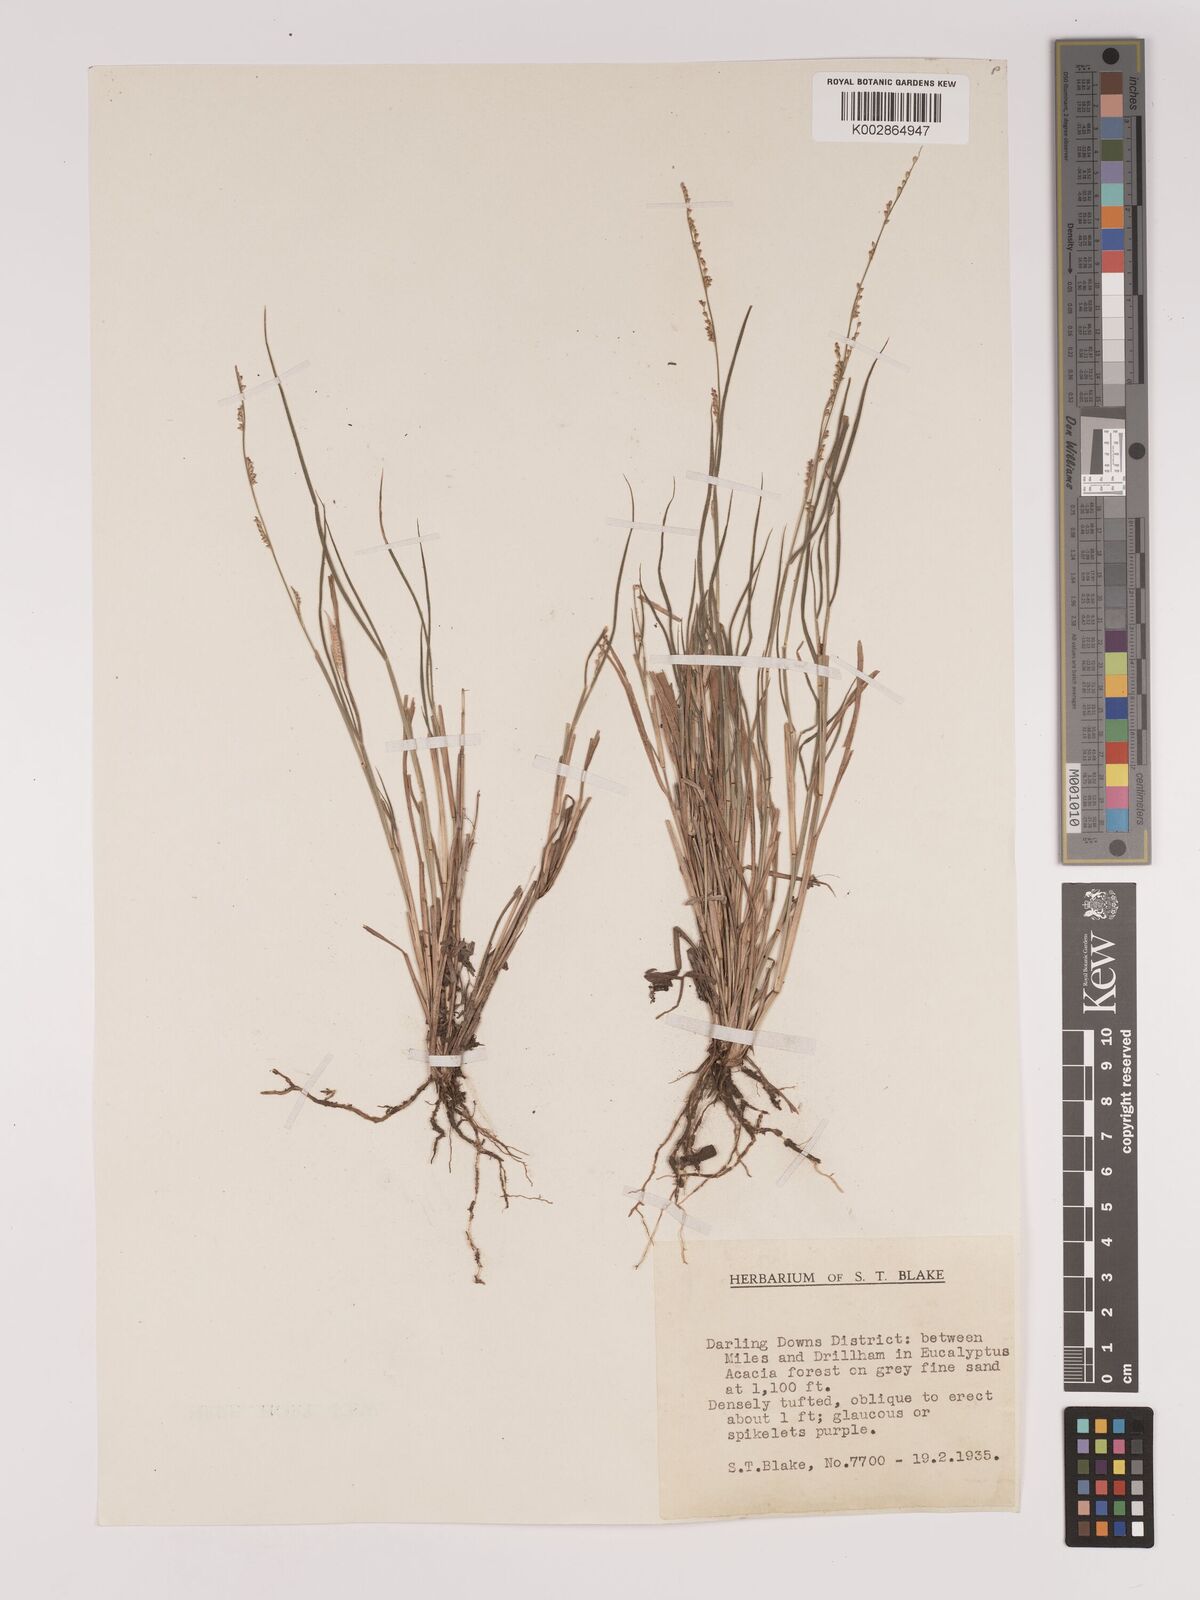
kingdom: Plantae
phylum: Tracheophyta
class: Liliopsida
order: Poales
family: Poaceae
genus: Setaria
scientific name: Setaria
